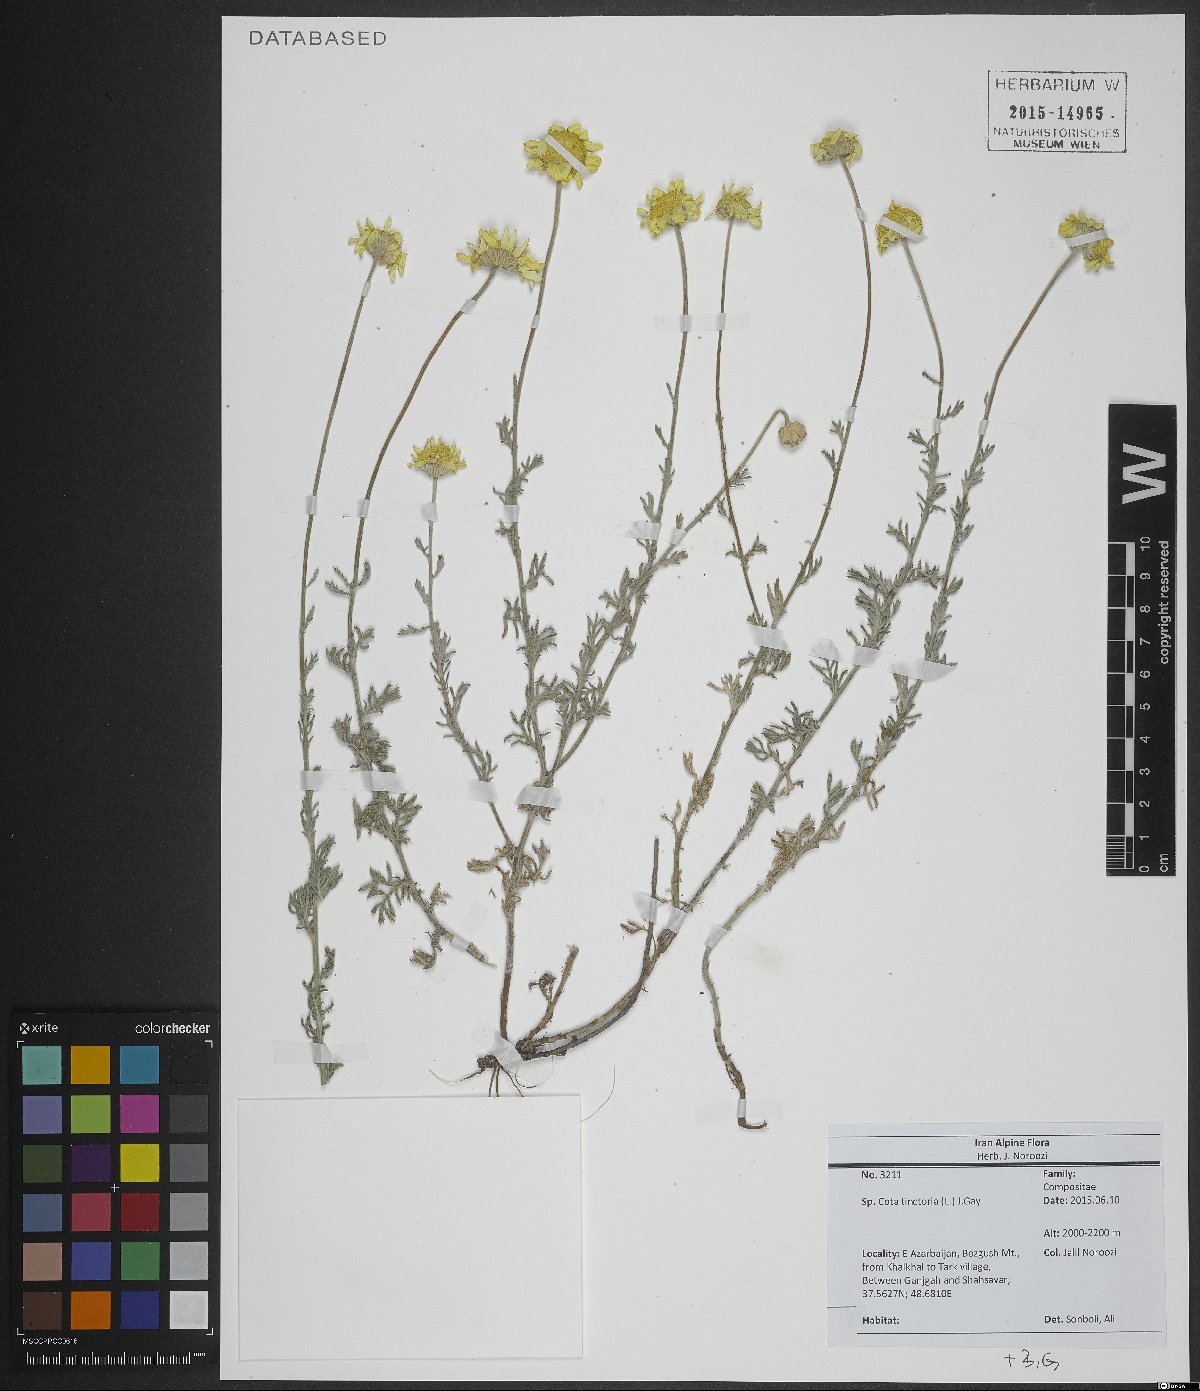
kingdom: Plantae
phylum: Tracheophyta
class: Magnoliopsida
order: Asterales
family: Asteraceae
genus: Cota
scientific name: Cota tinctoria
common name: Golden chamomile
